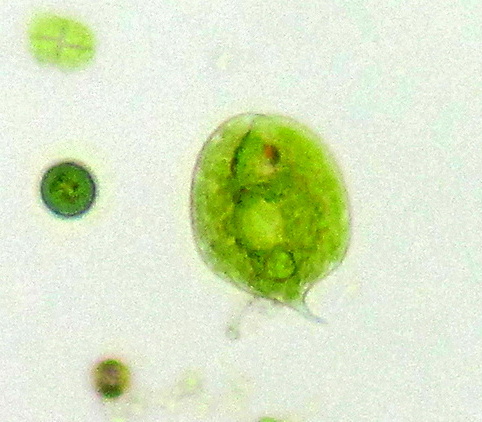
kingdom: Protozoa
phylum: Euglenozoa
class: Euglenoidea
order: Euglenida
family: Phacidae
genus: Phacus
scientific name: Phacus
